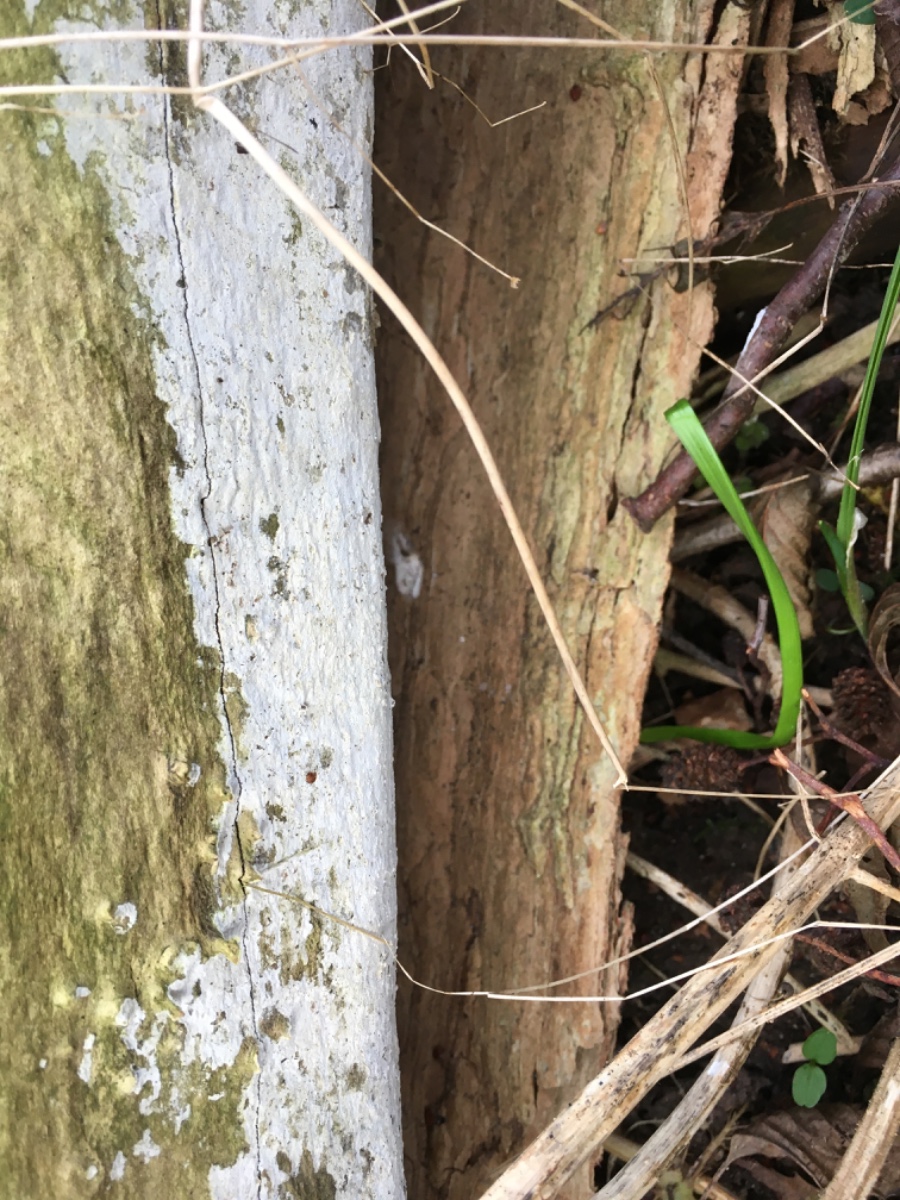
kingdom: Fungi
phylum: Basidiomycota
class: Agaricomycetes
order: Corticiales
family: Corticiaceae
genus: Lyomyces
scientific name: Lyomyces sambuci
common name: almindelig hyldehinde
